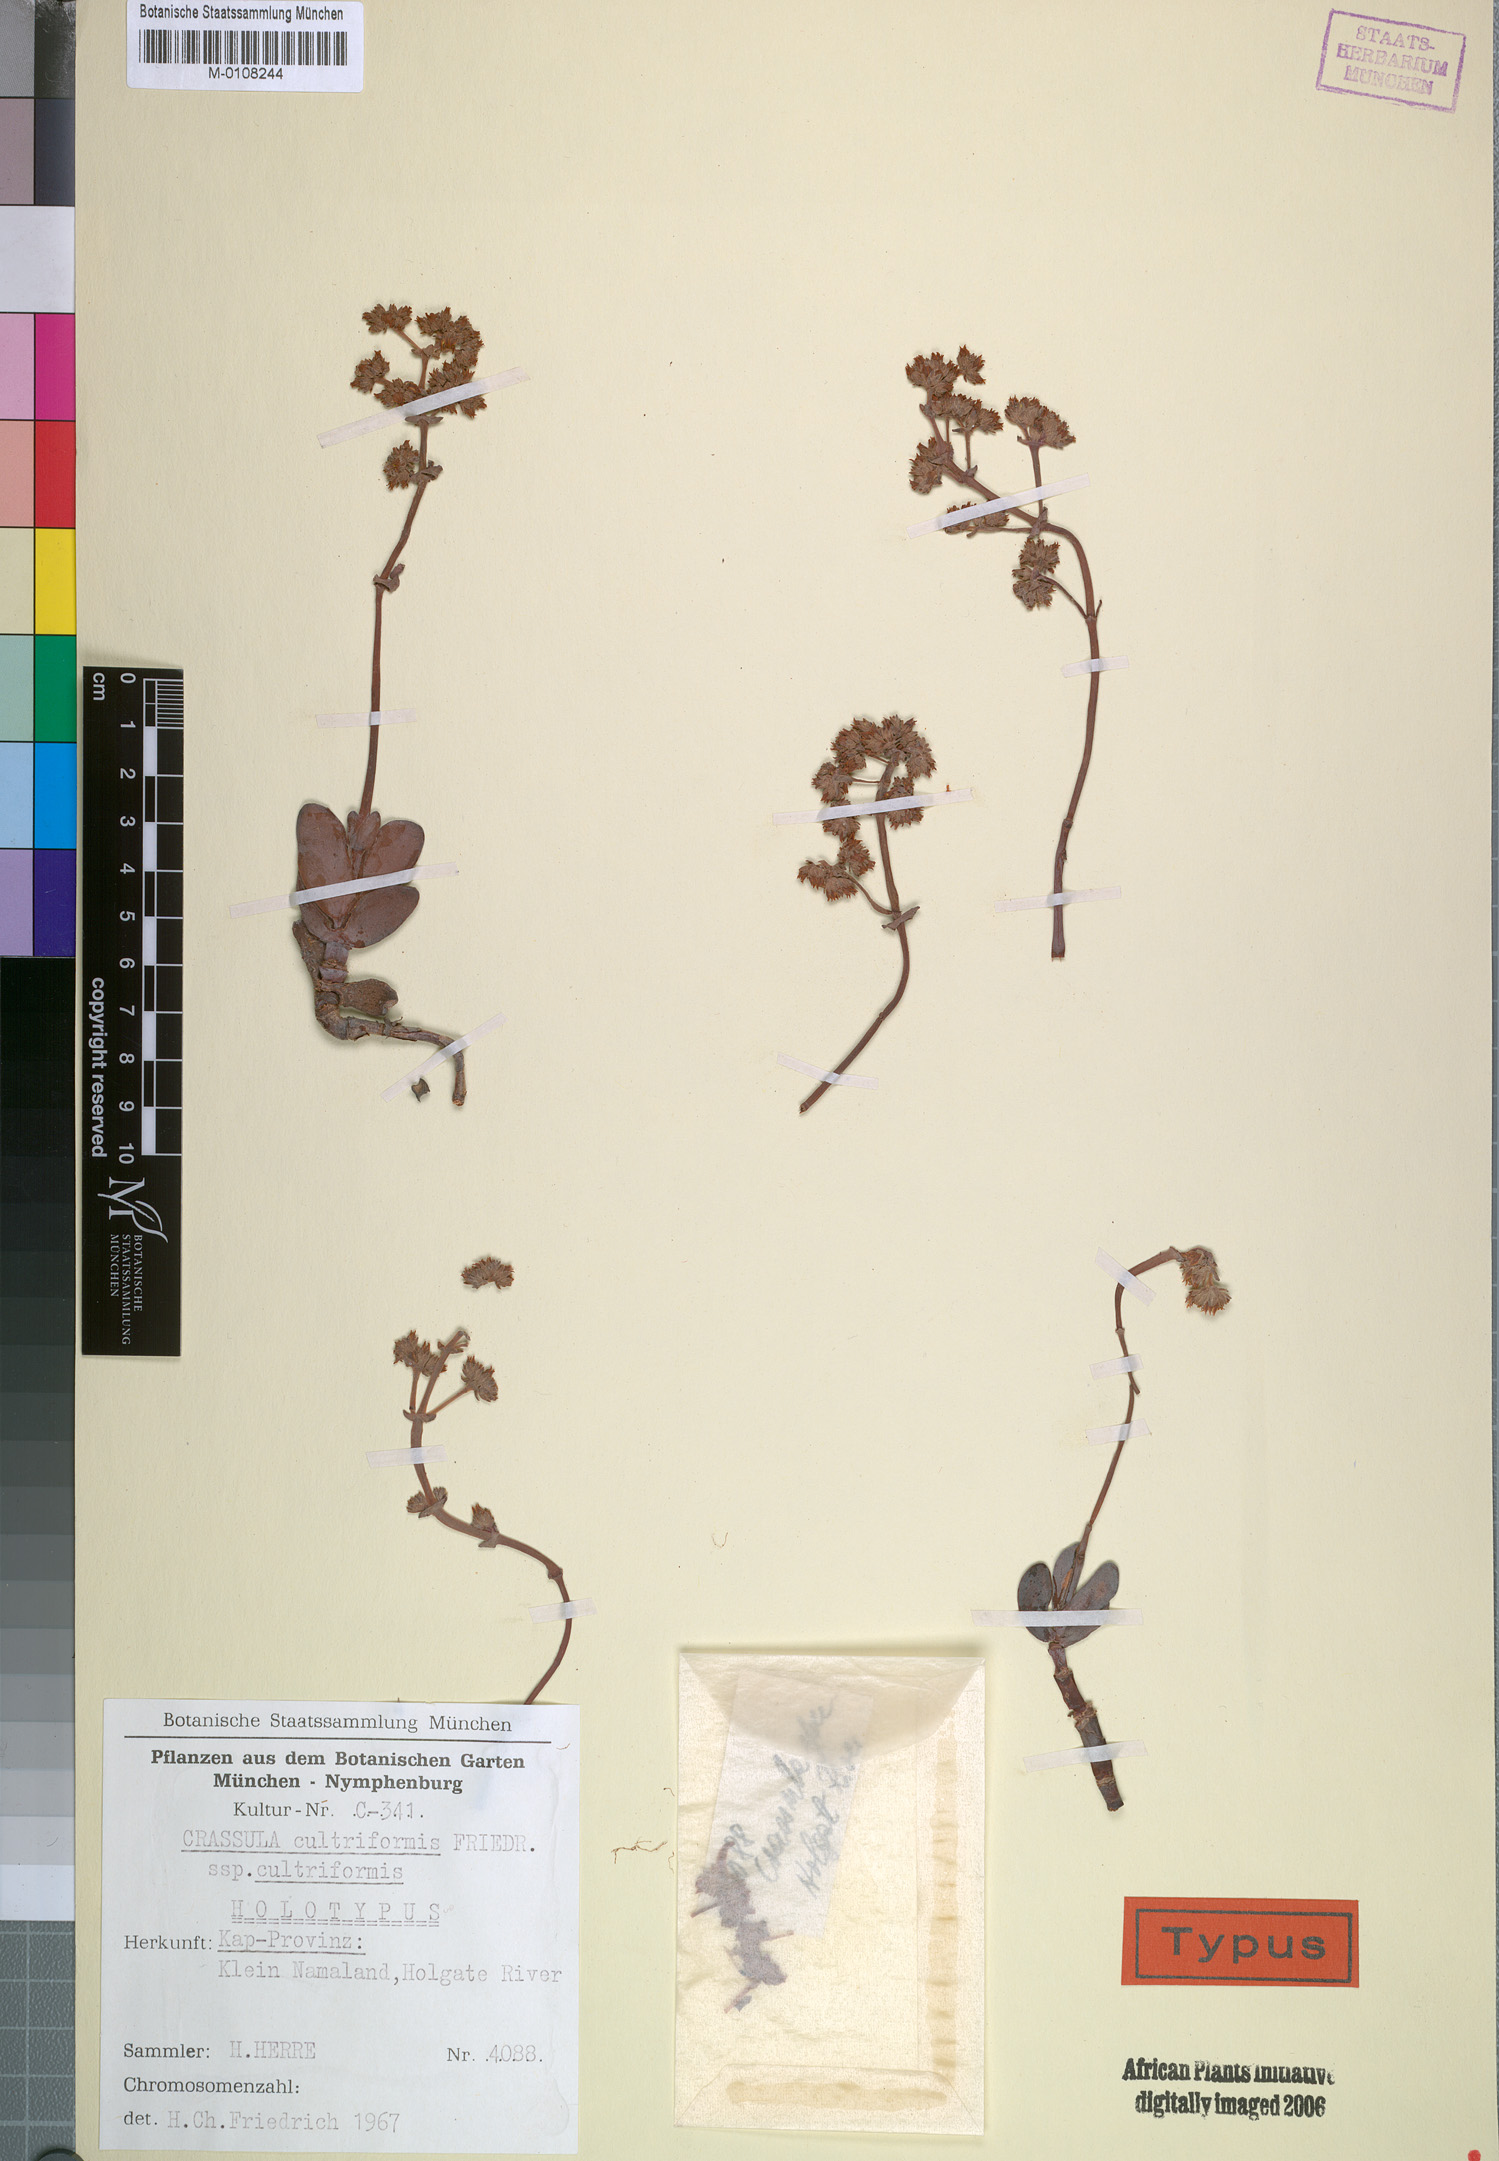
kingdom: Plantae
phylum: Tracheophyta
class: Magnoliopsida
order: Saxifragales
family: Crassulaceae
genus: Crassula
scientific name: Crassula atropurpurea
